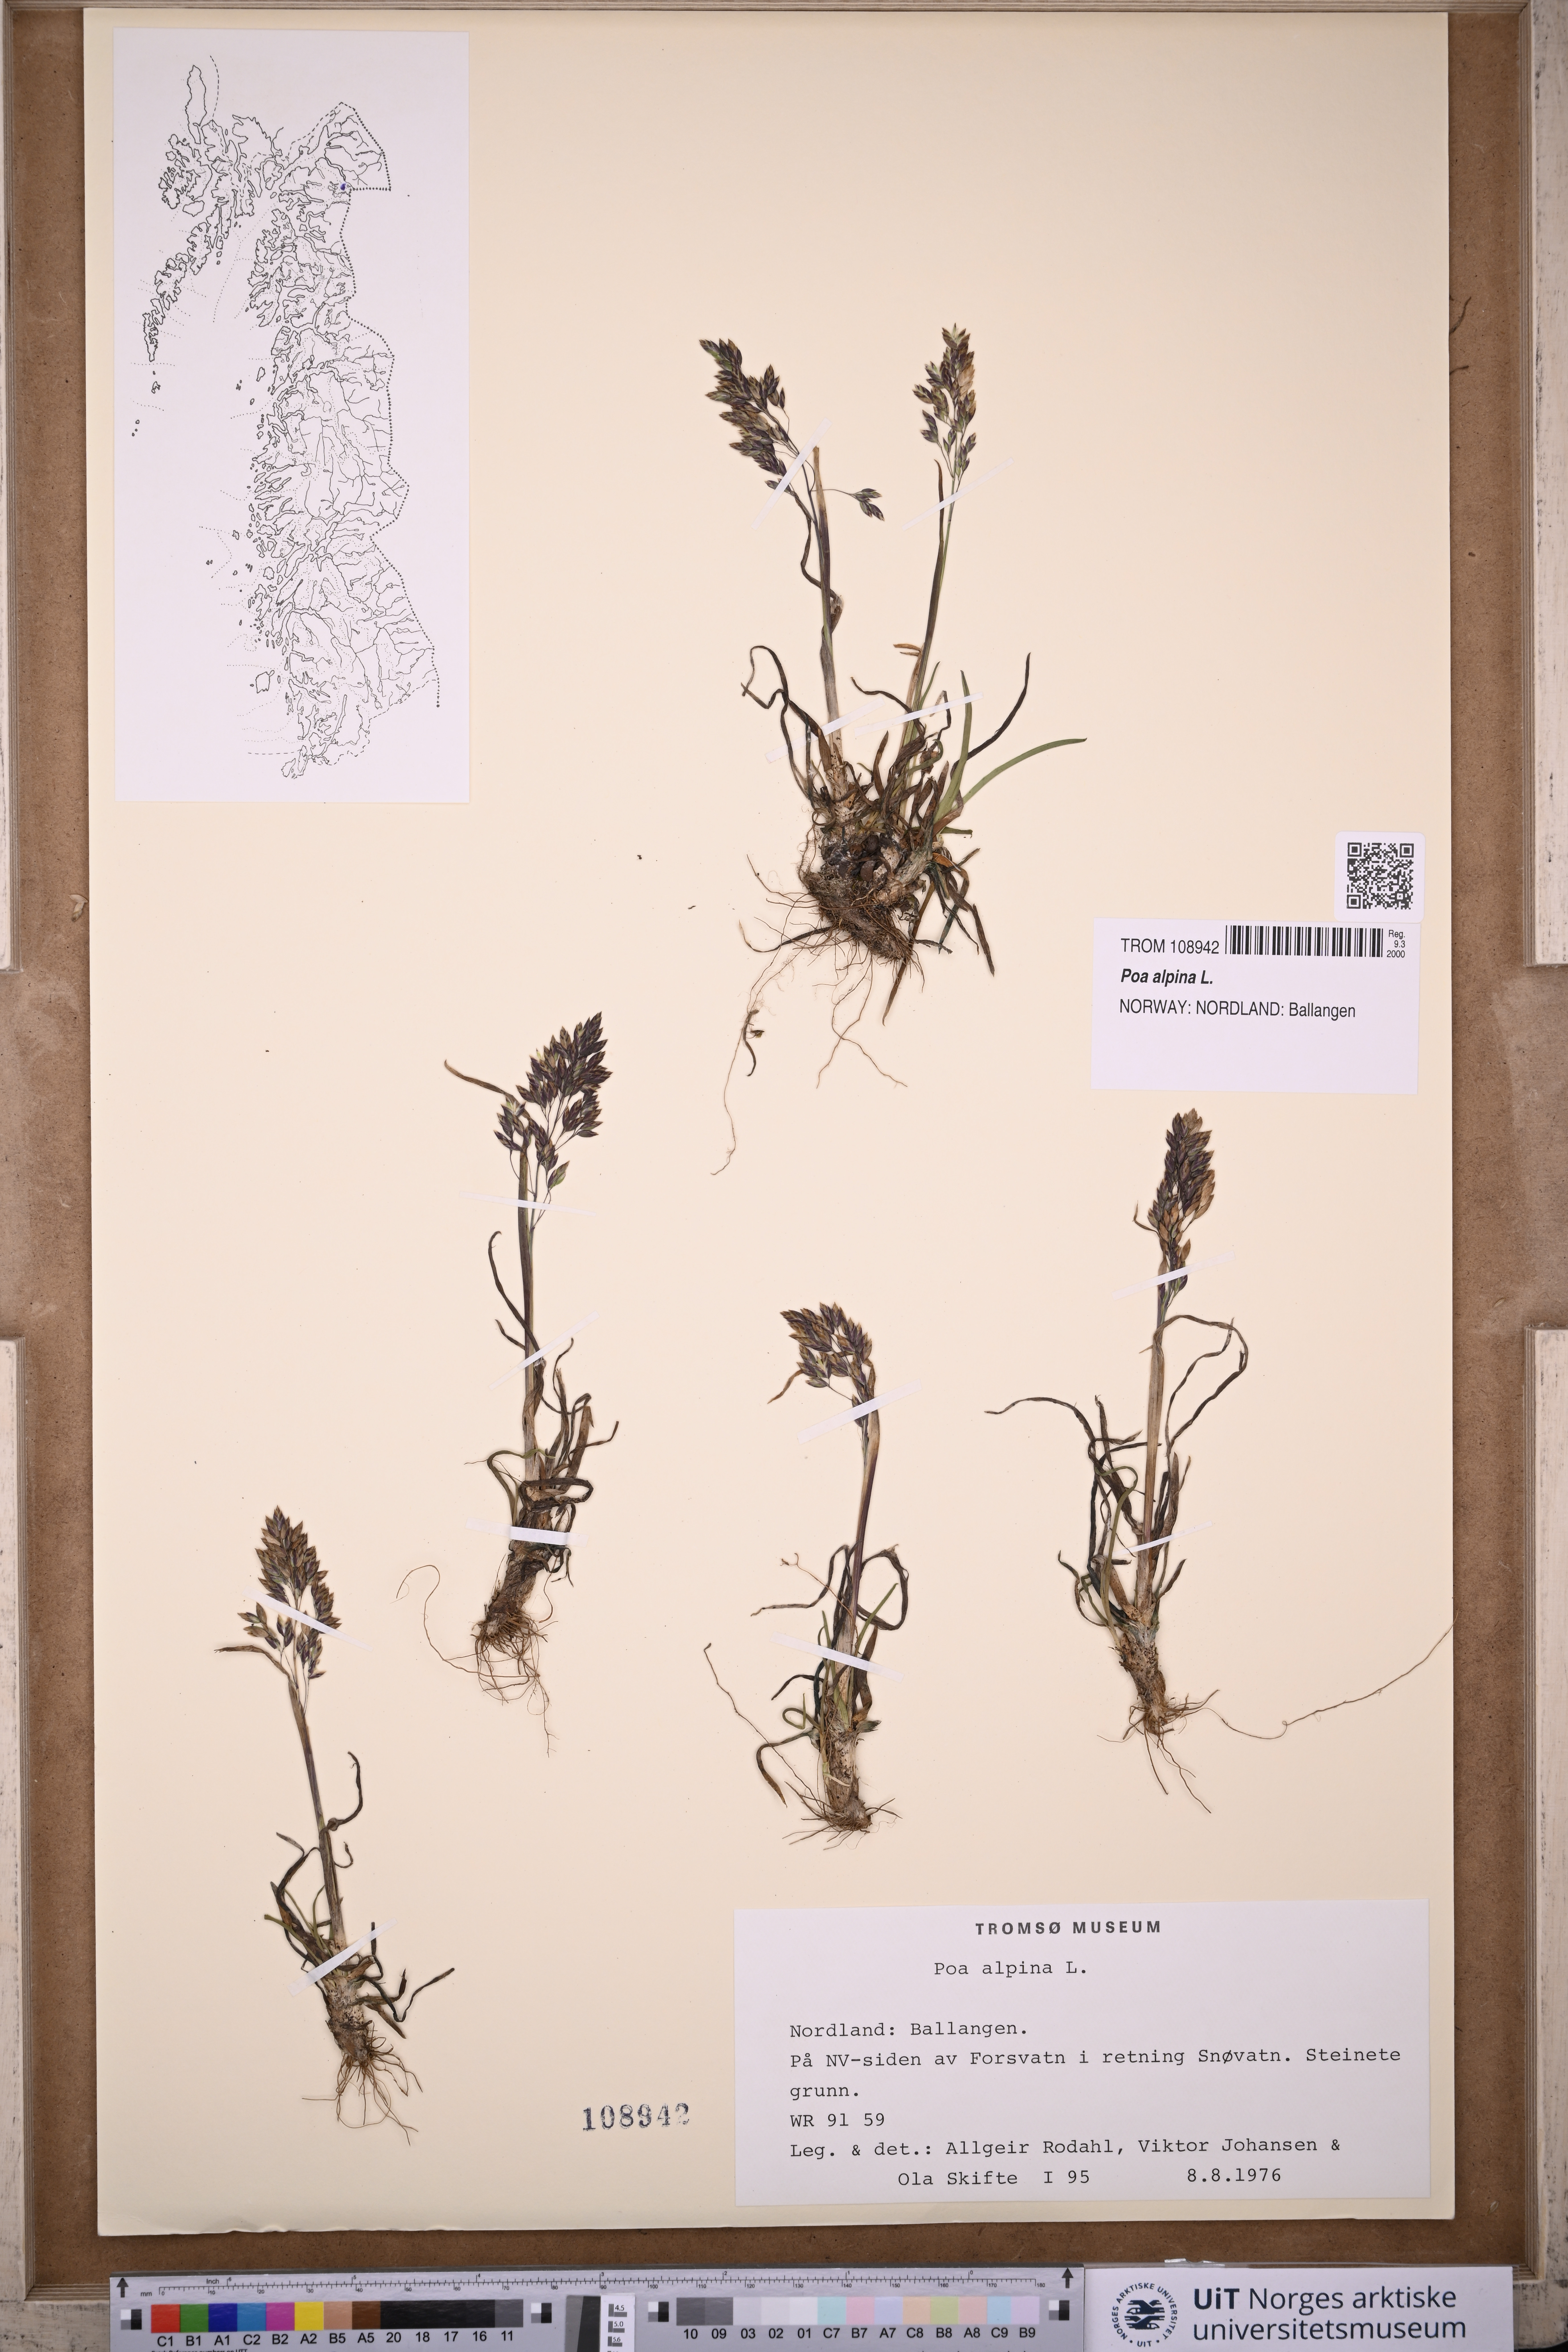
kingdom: Plantae
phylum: Tracheophyta
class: Liliopsida
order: Poales
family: Poaceae
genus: Poa
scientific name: Poa alpina
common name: Alpine bluegrass
